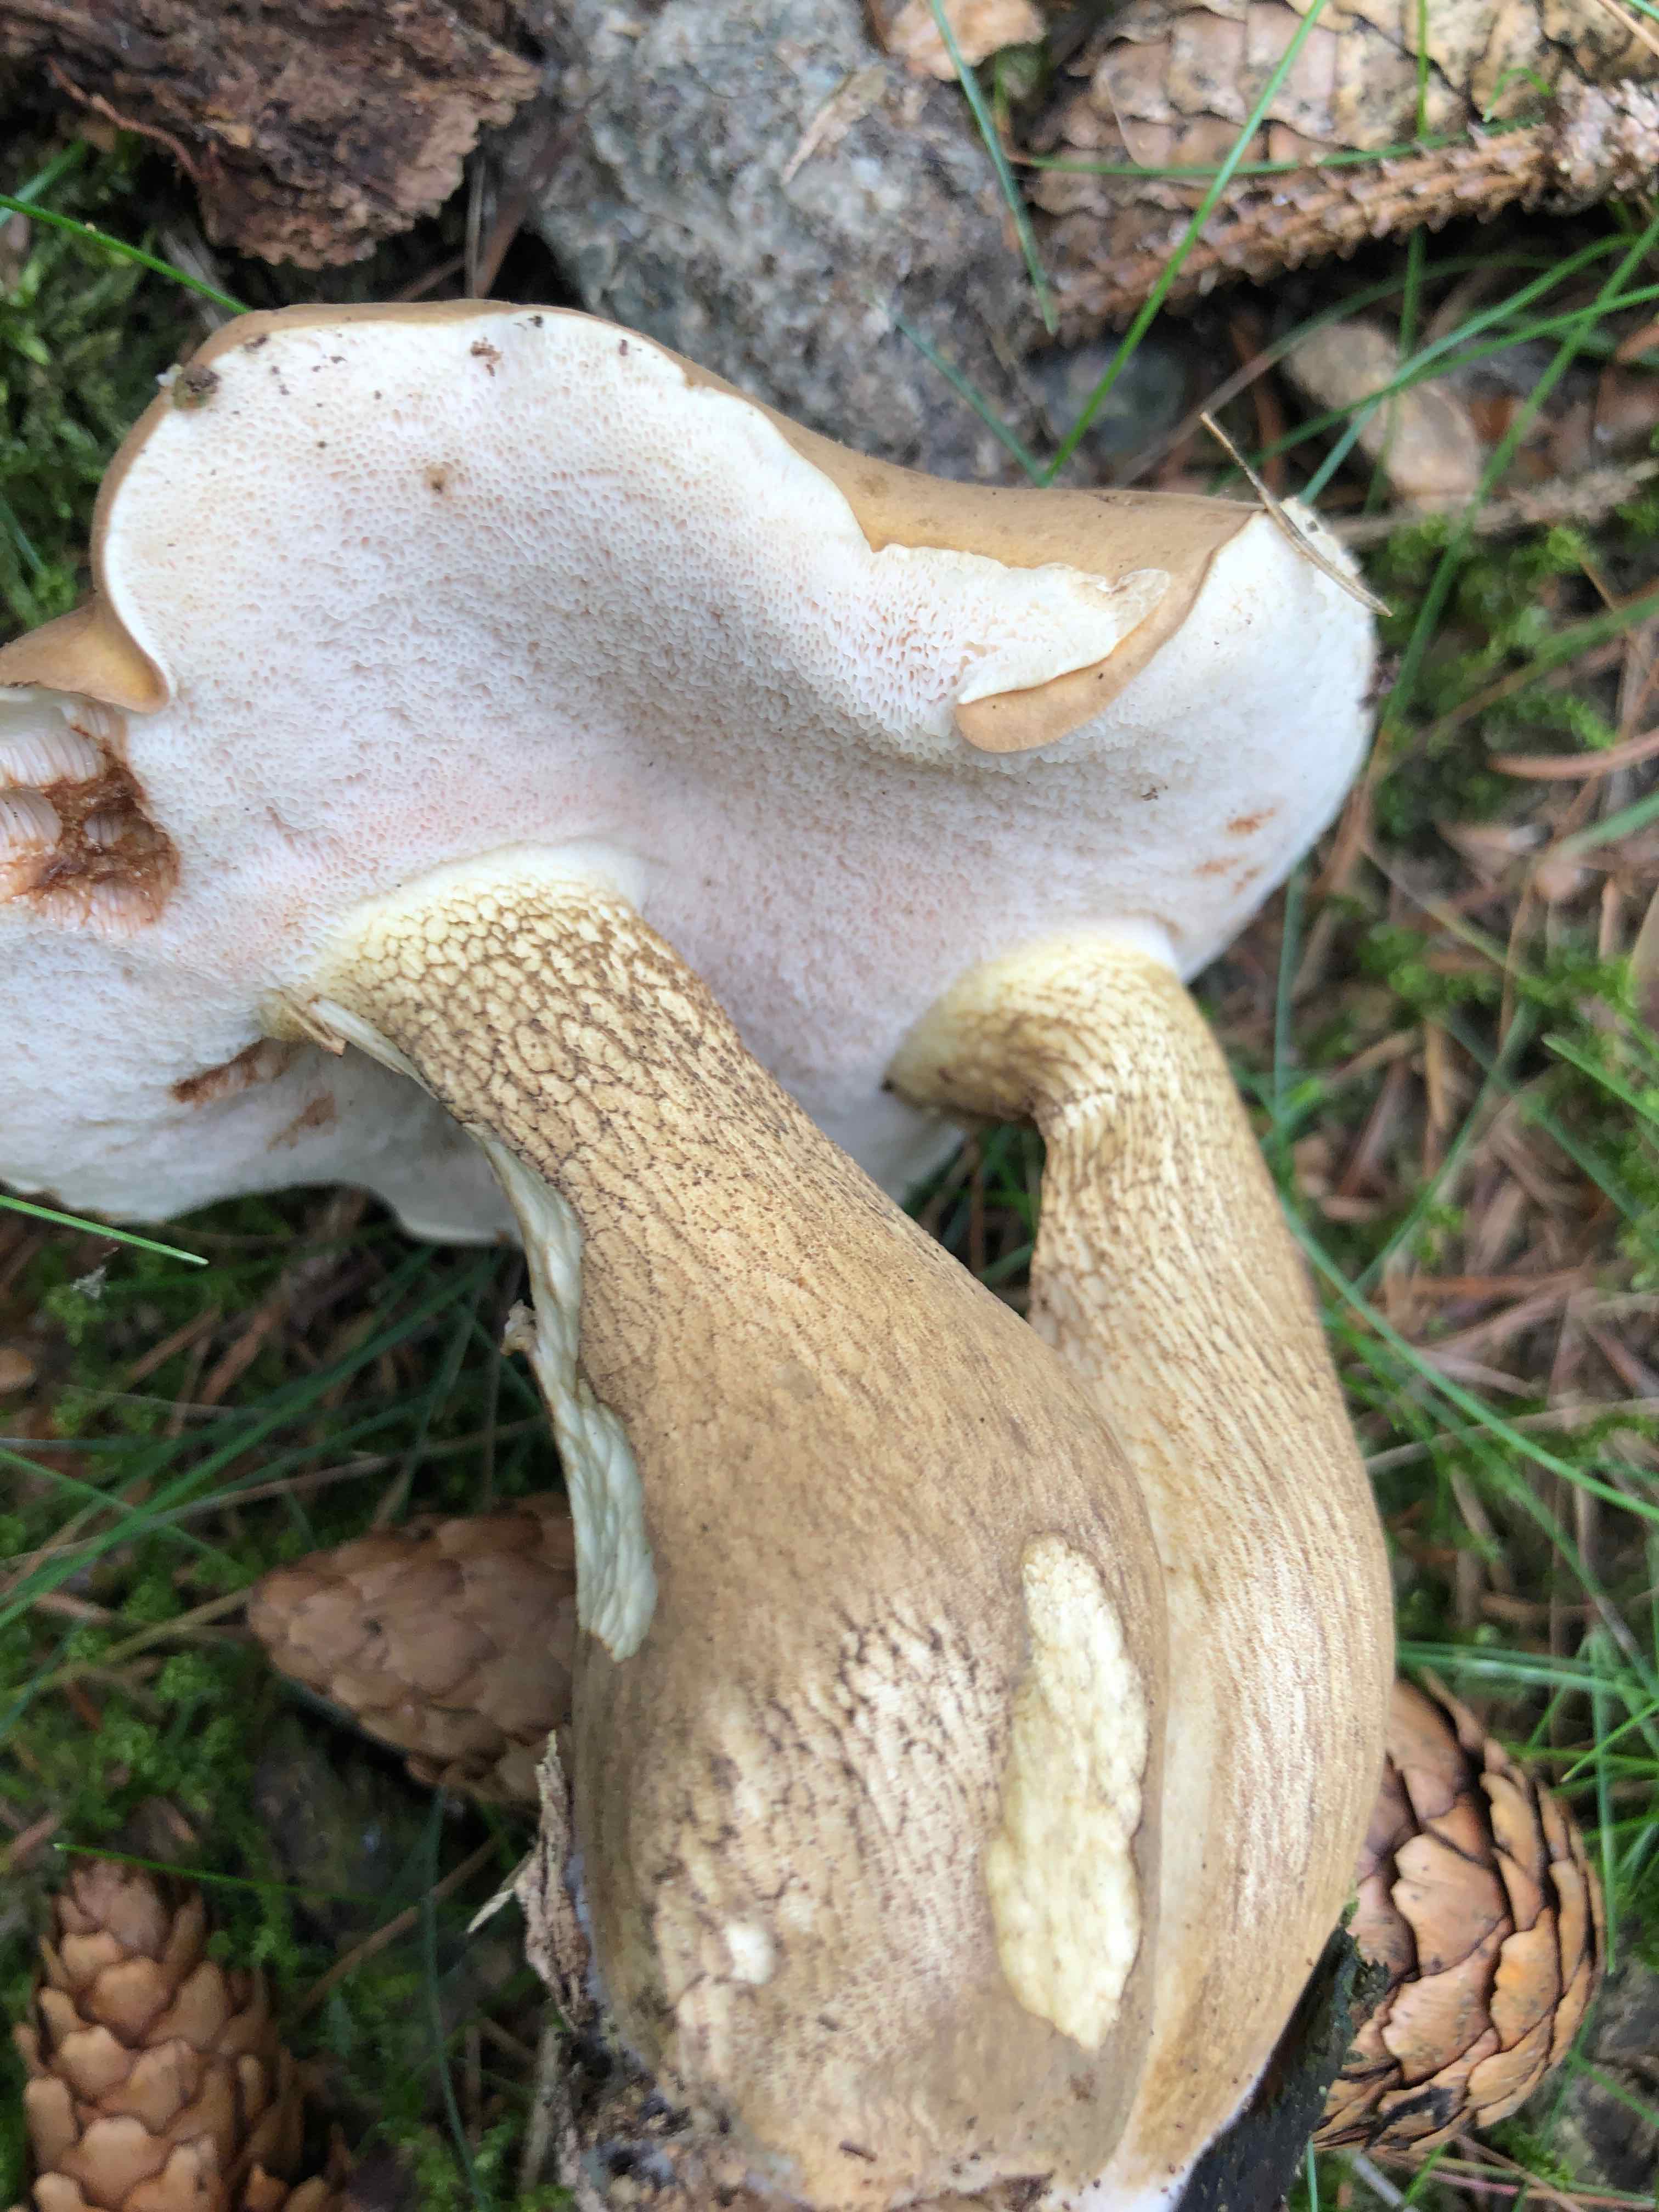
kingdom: Fungi
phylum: Basidiomycota
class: Agaricomycetes
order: Boletales
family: Boletaceae
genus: Tylopilus
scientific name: Tylopilus felleus
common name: galderørhat
